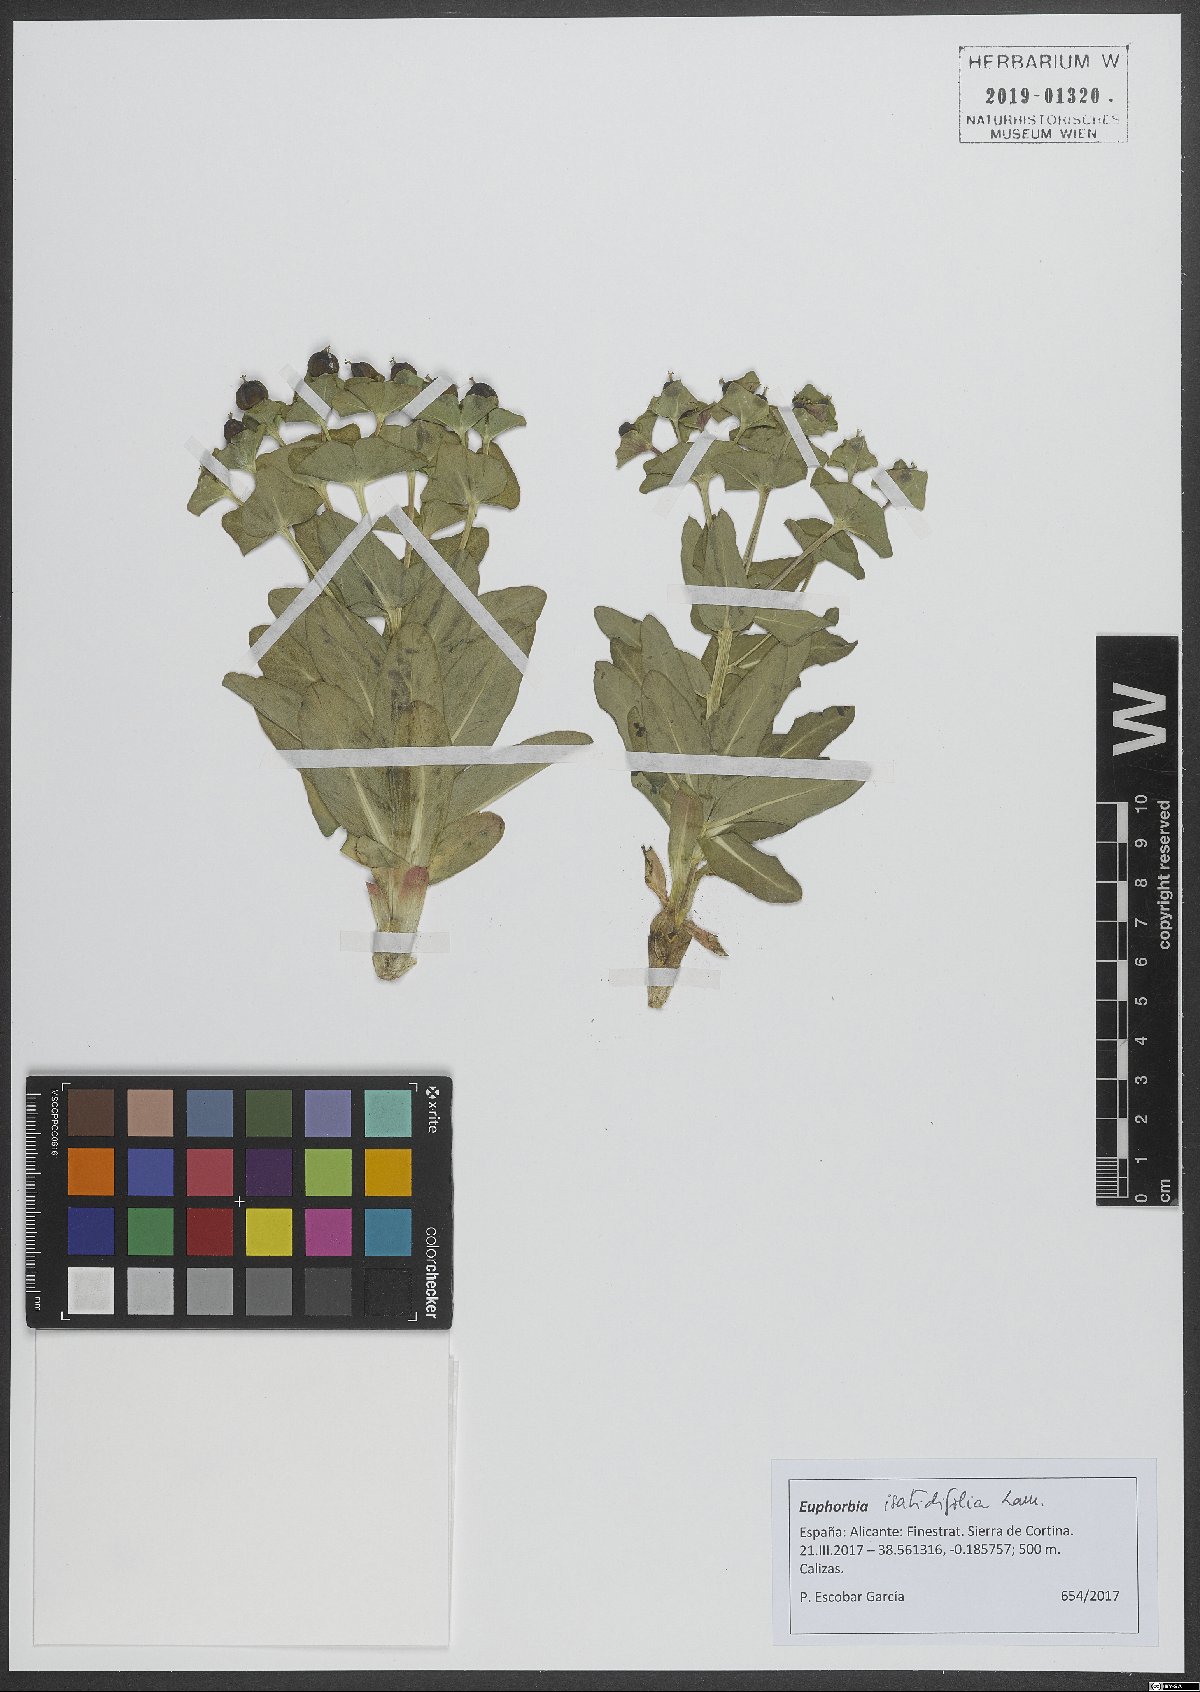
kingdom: Plantae
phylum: Tracheophyta
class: Magnoliopsida
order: Malpighiales
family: Euphorbiaceae
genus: Euphorbia
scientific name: Euphorbia isatidifolia
